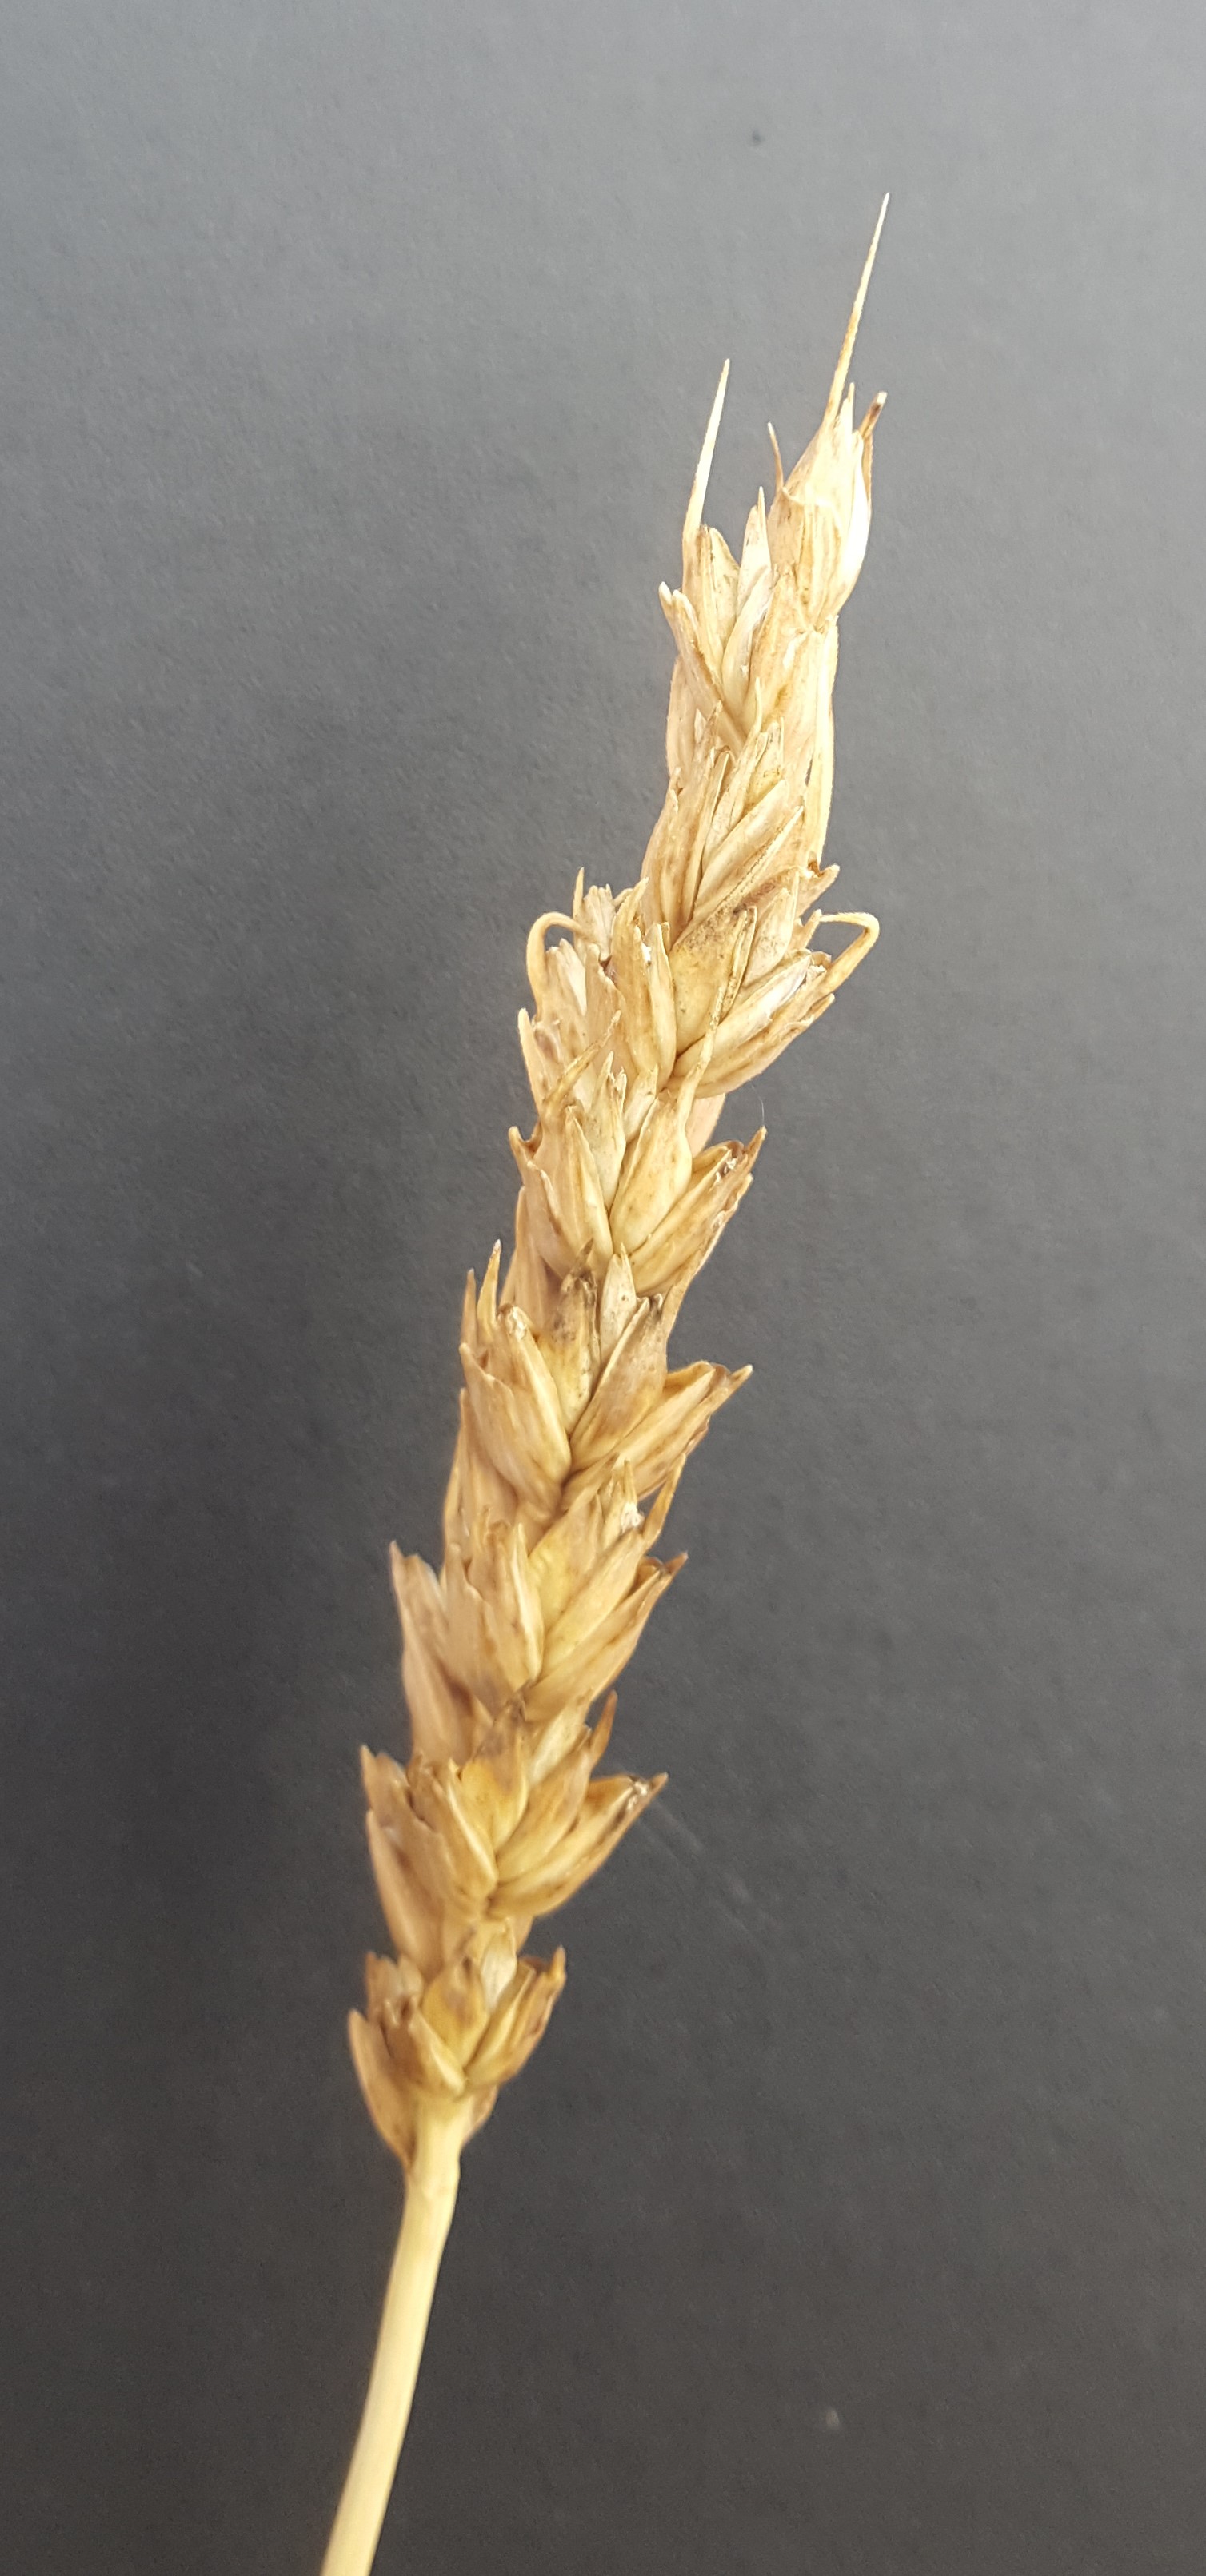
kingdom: Plantae
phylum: Tracheophyta
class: Liliopsida
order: Poales
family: Poaceae
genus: Triticum
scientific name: Triticum aestivum
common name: Common wheat
